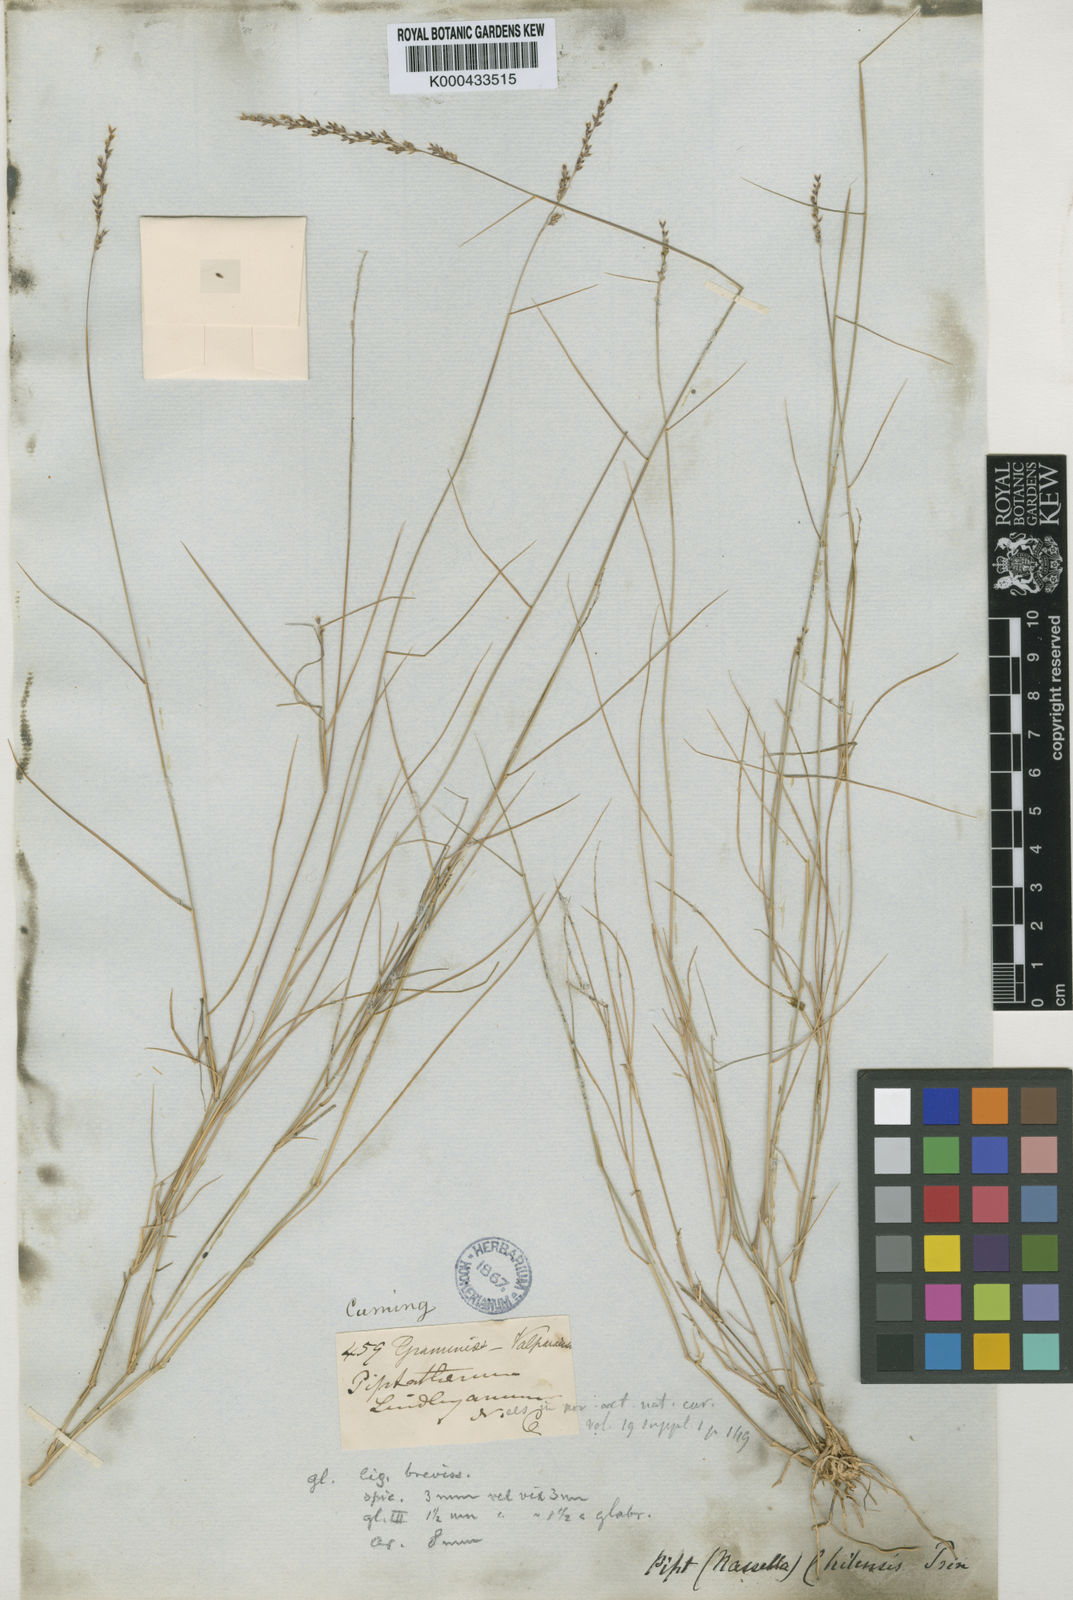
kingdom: Plantae
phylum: Tracheophyta
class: Liliopsida
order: Poales
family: Poaceae
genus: Nassella
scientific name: Nassella chilensis
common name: Chilean needlegrass
